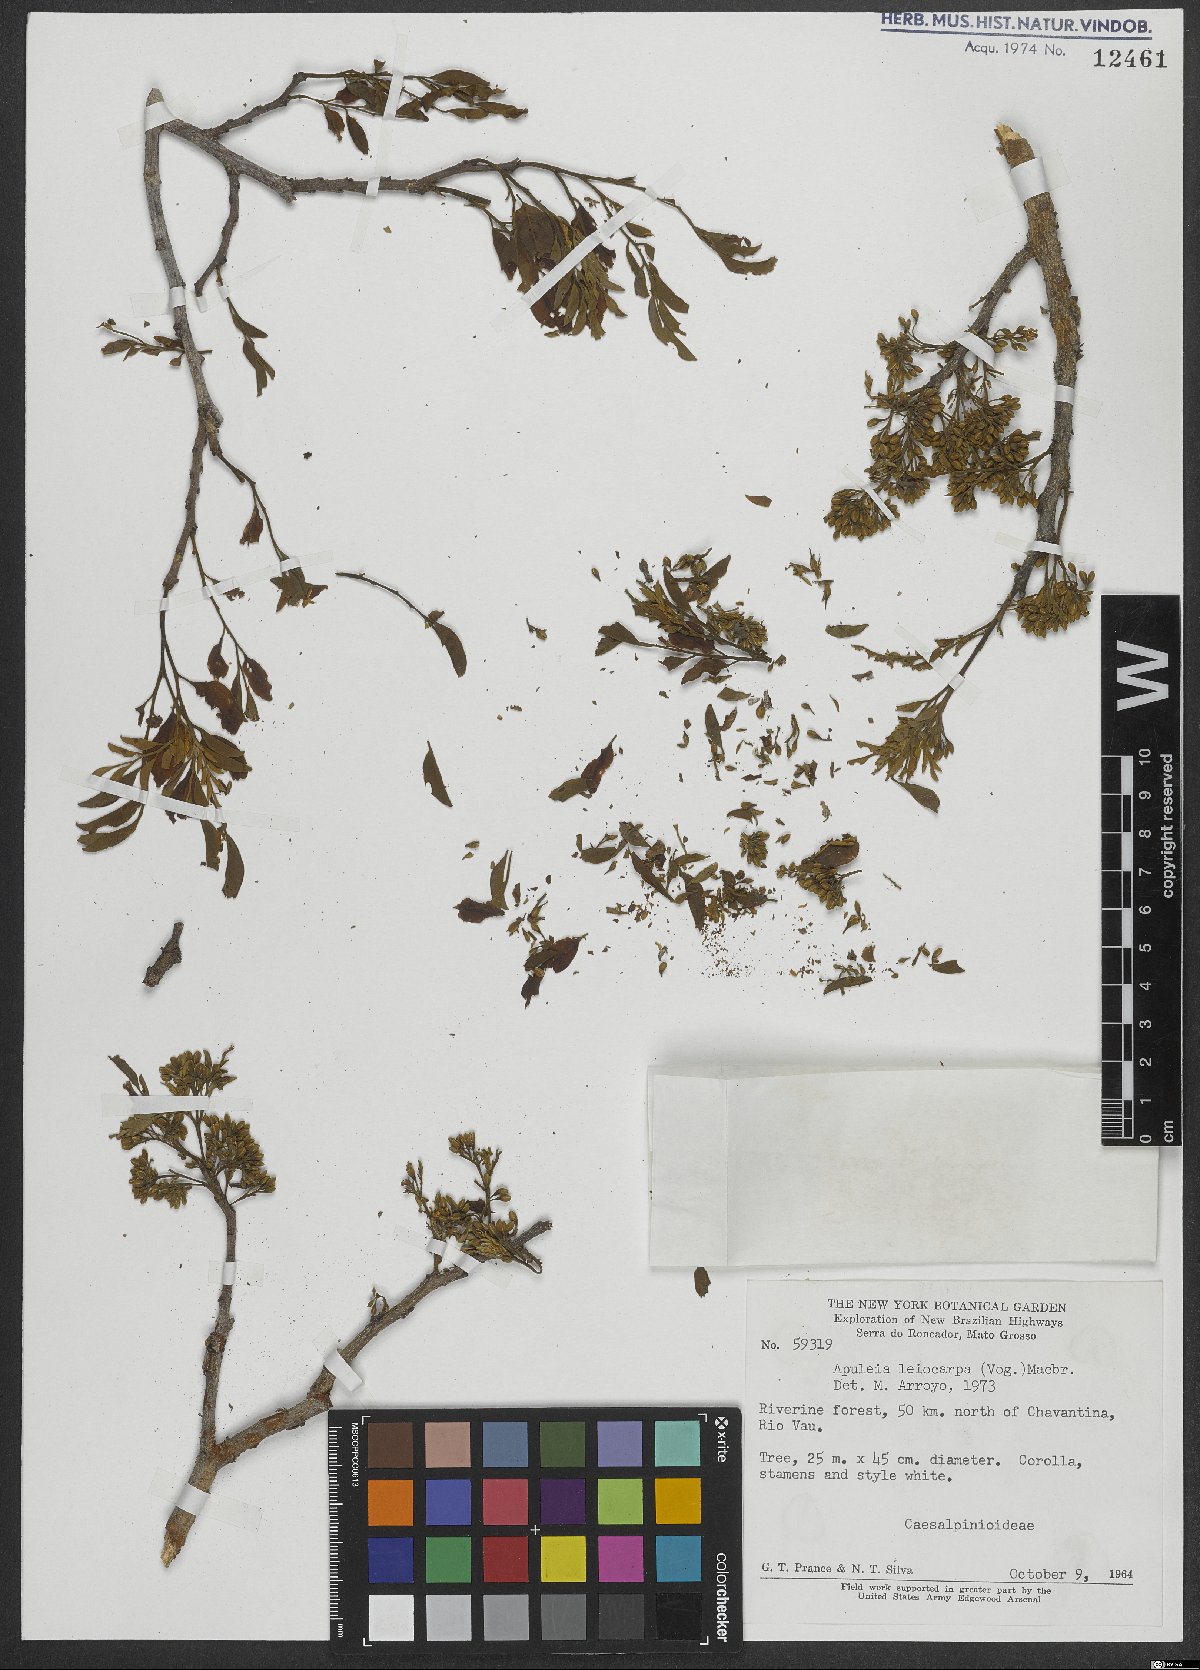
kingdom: Plantae
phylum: Tracheophyta
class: Magnoliopsida
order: Fabales
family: Fabaceae
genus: Apuleia
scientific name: Apuleia leiocarpa
